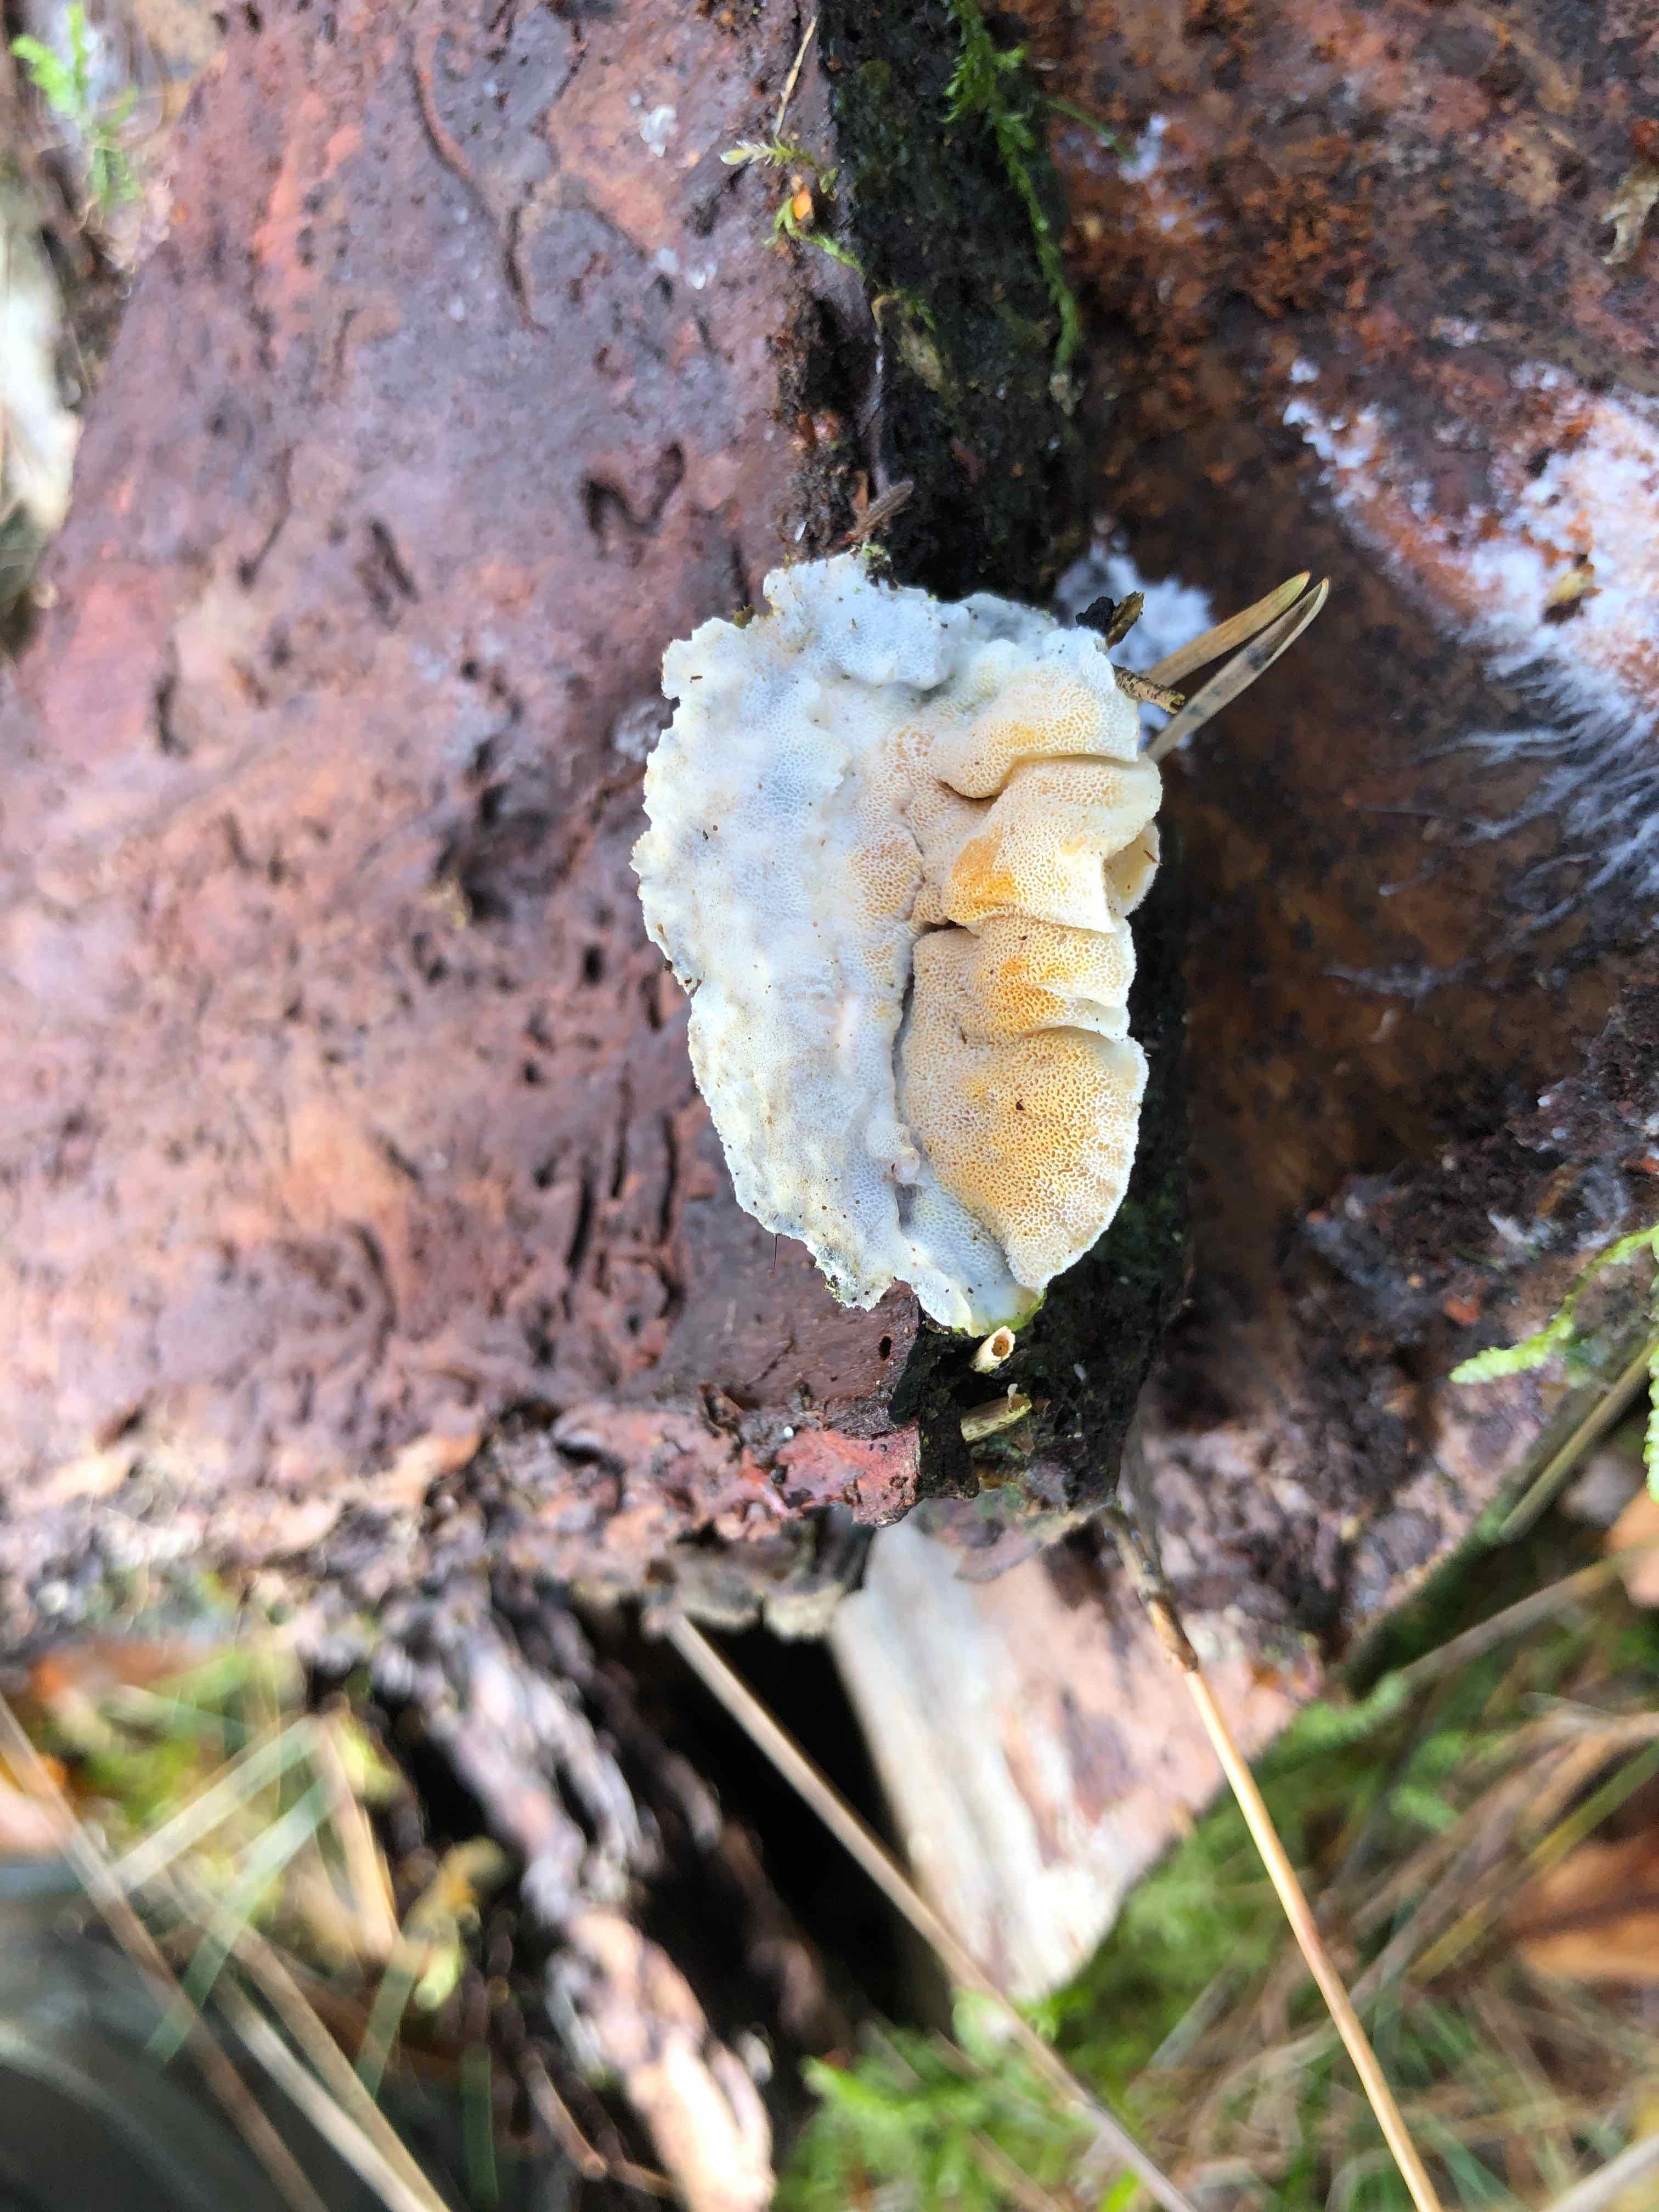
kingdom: Fungi
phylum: Basidiomycota
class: Agaricomycetes
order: Polyporales
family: Incrustoporiaceae
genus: Skeletocutis
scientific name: Skeletocutis amorpha
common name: orange krystalporesvamp
